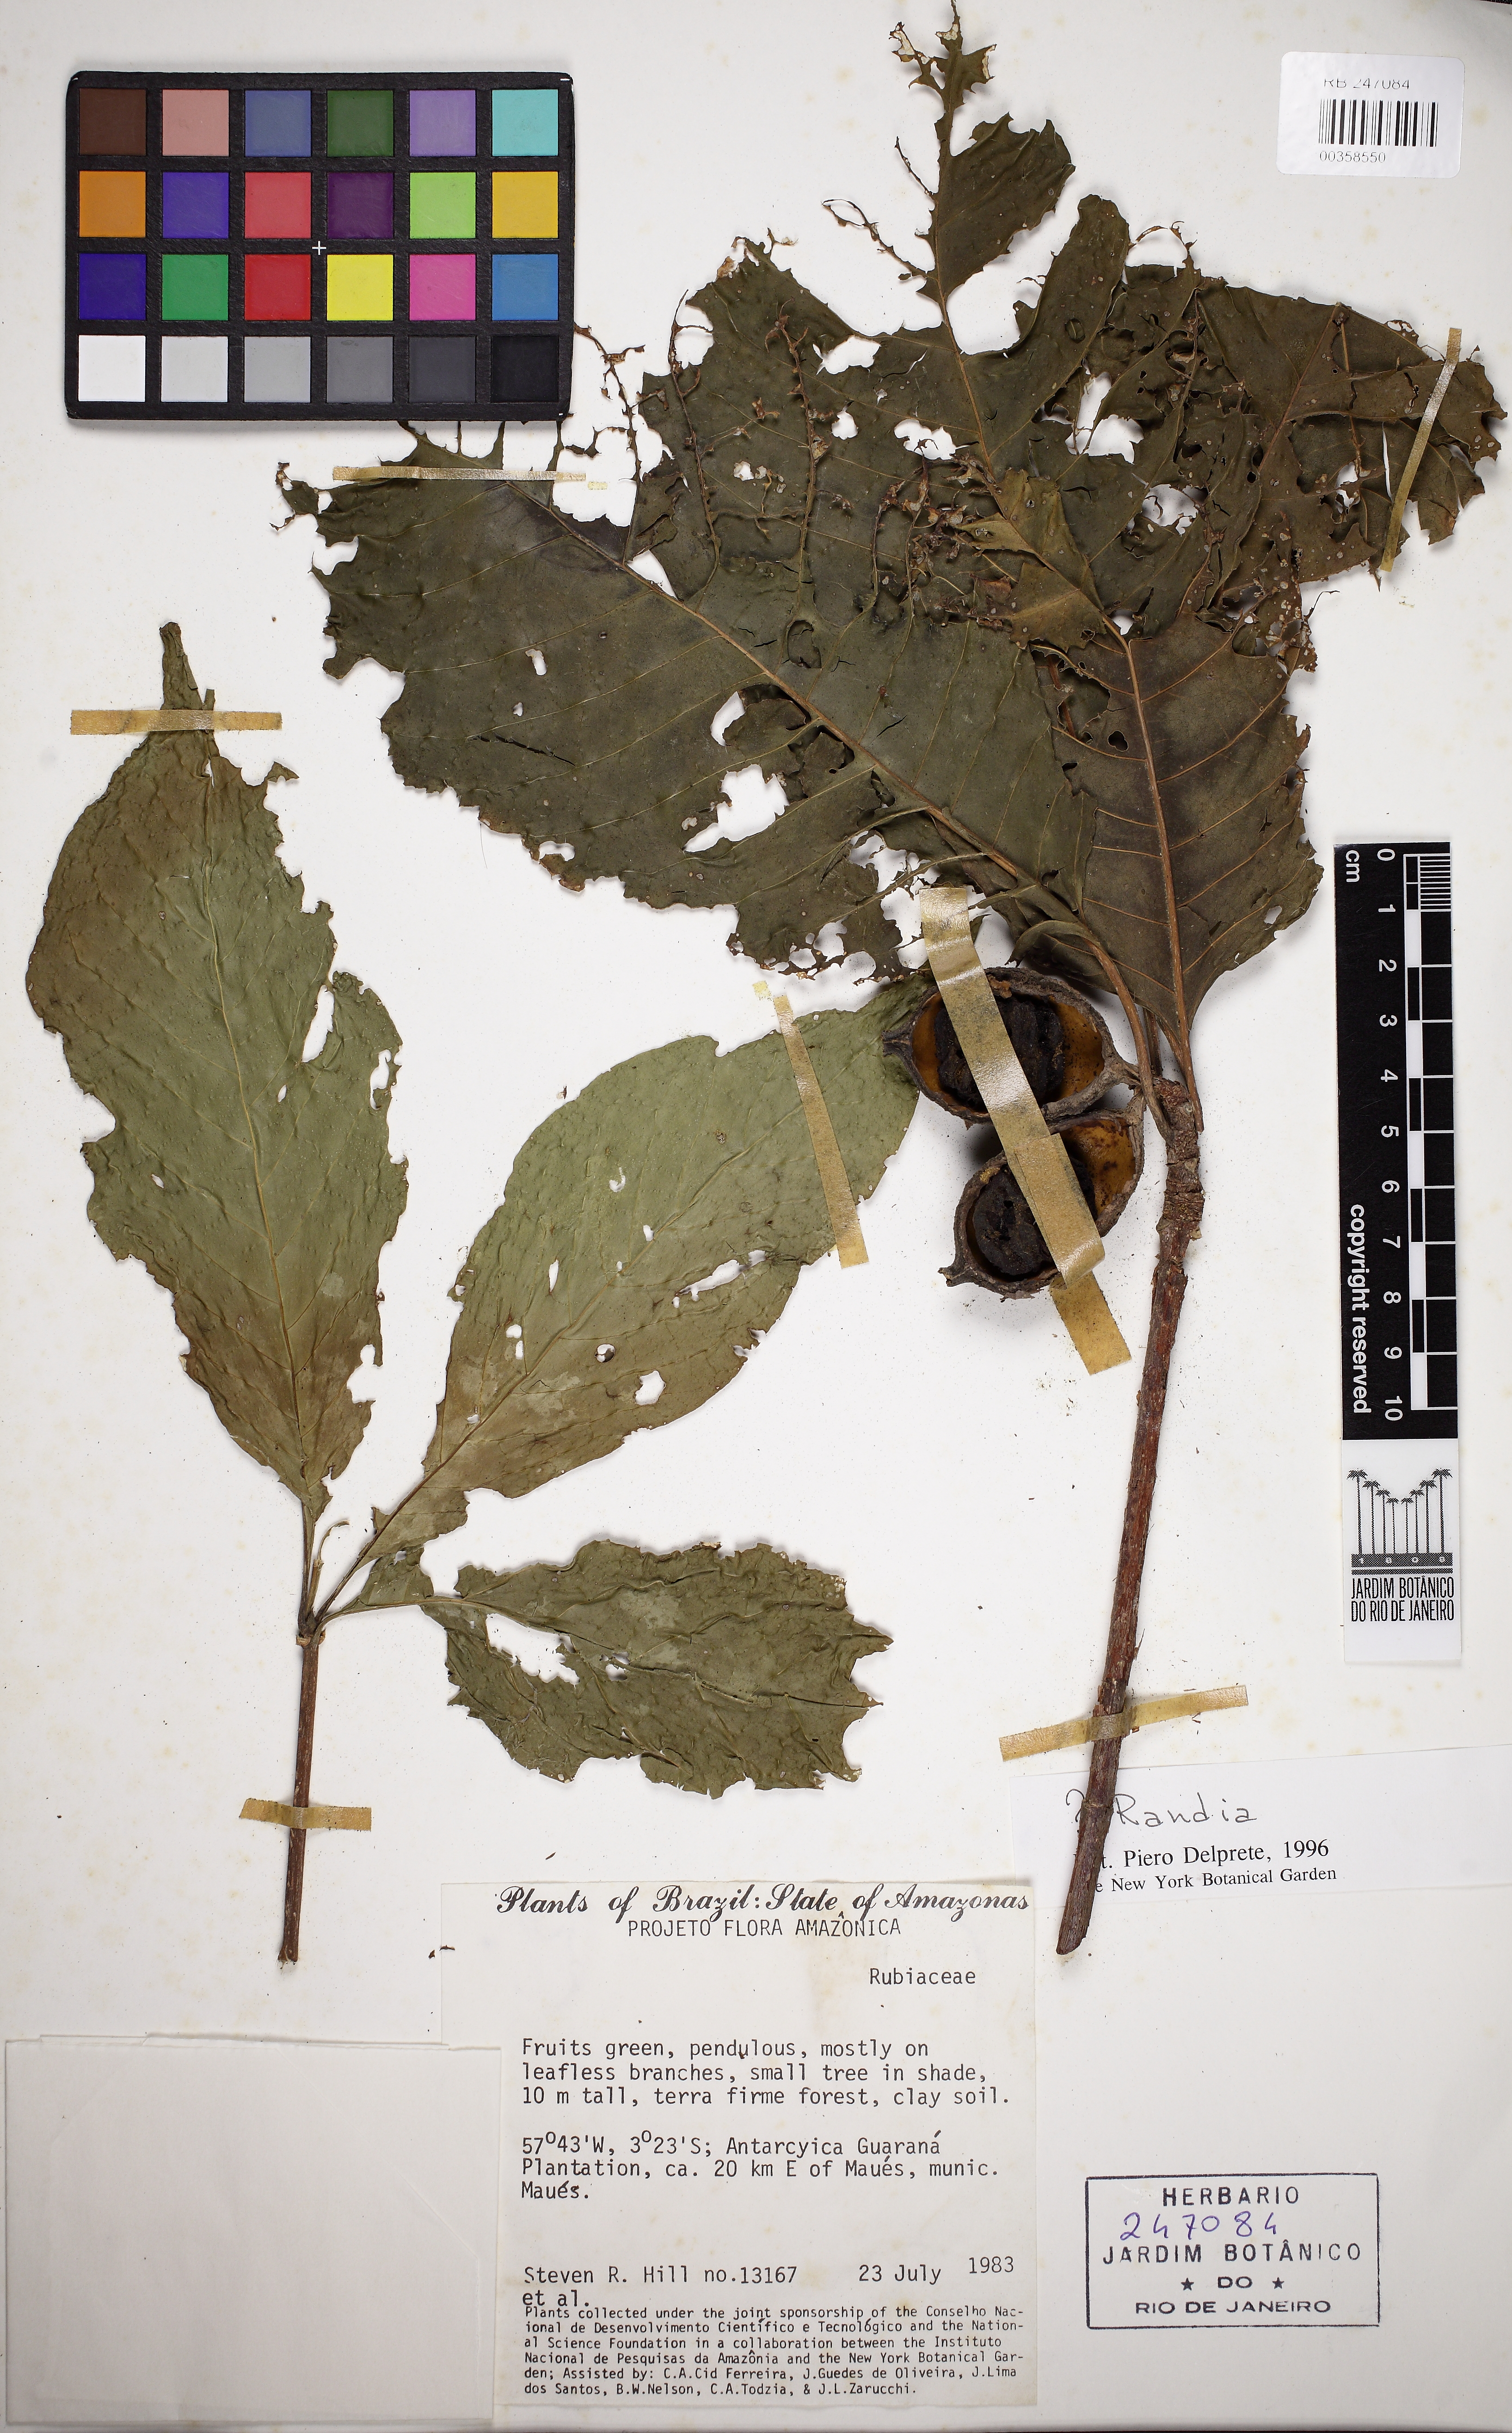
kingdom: Plantae
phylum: Tracheophyta
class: Magnoliopsida
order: Gentianales
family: Rubiaceae
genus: Randia
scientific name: Randia
